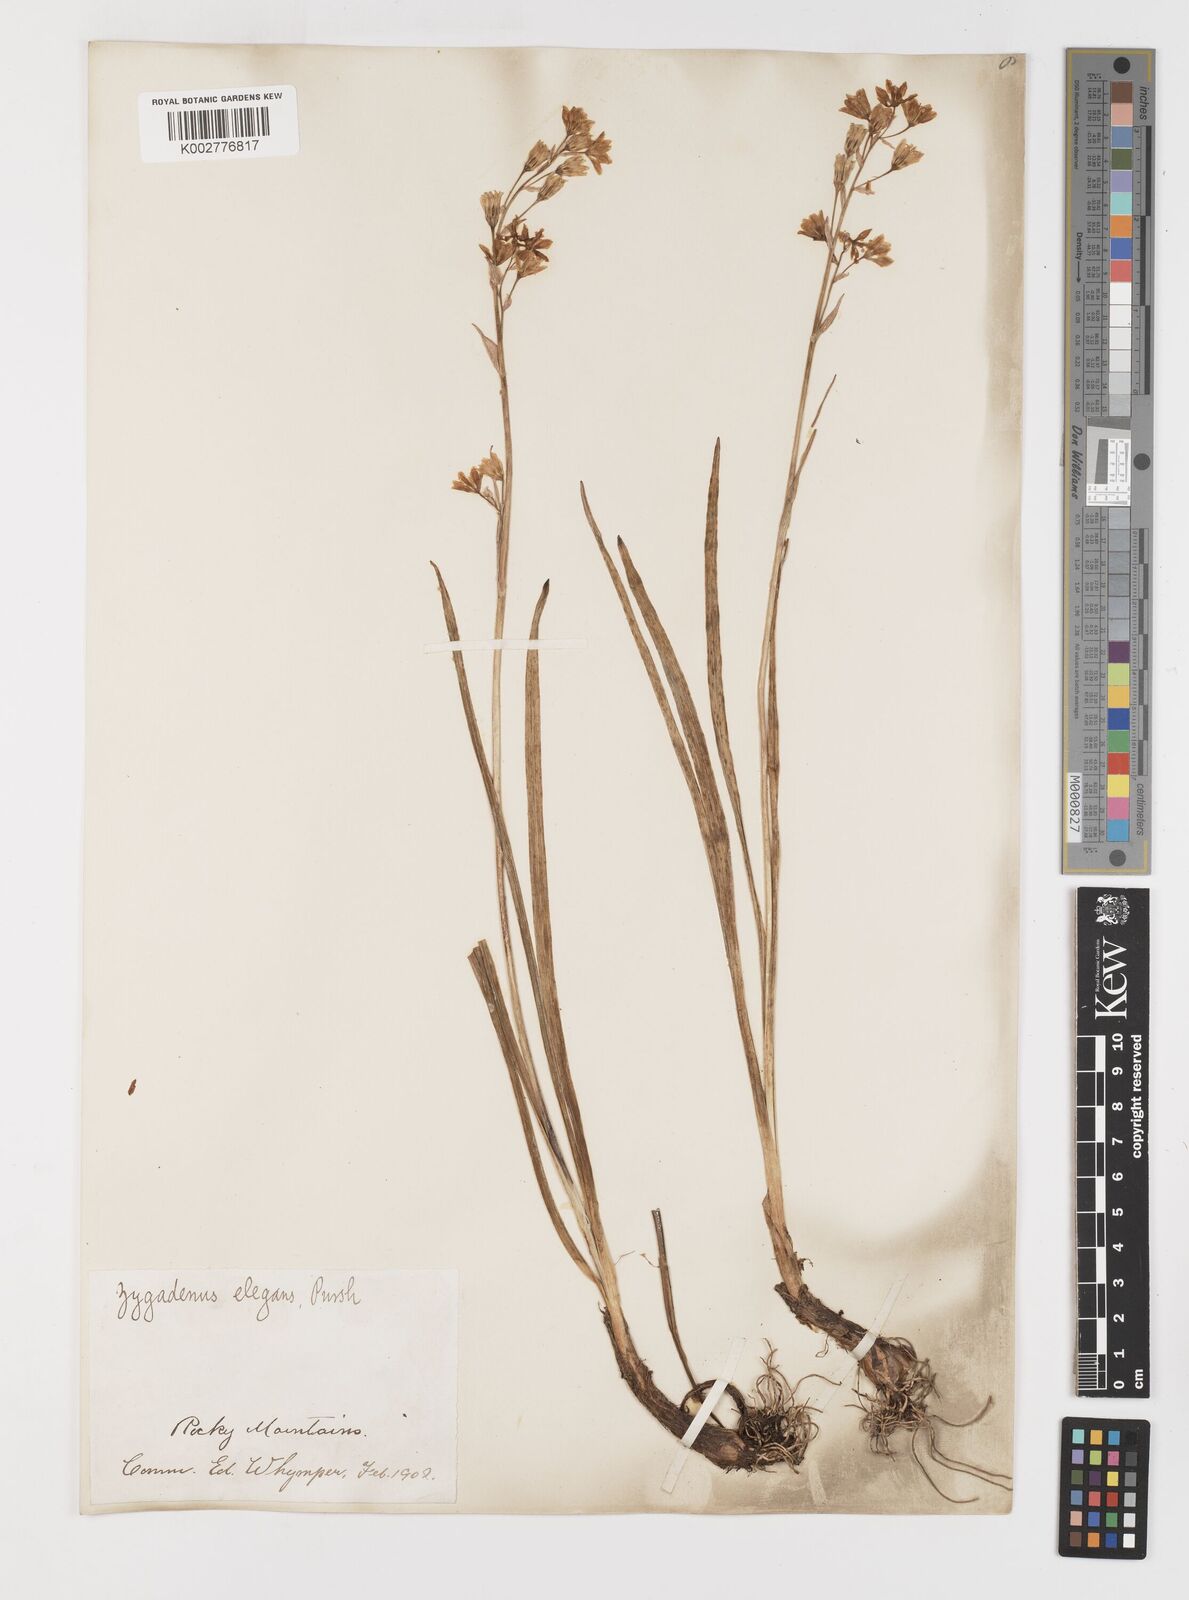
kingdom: Plantae
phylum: Tracheophyta
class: Liliopsida
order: Liliales
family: Melanthiaceae
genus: Anticlea
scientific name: Anticlea elegans
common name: Mountain death camas
